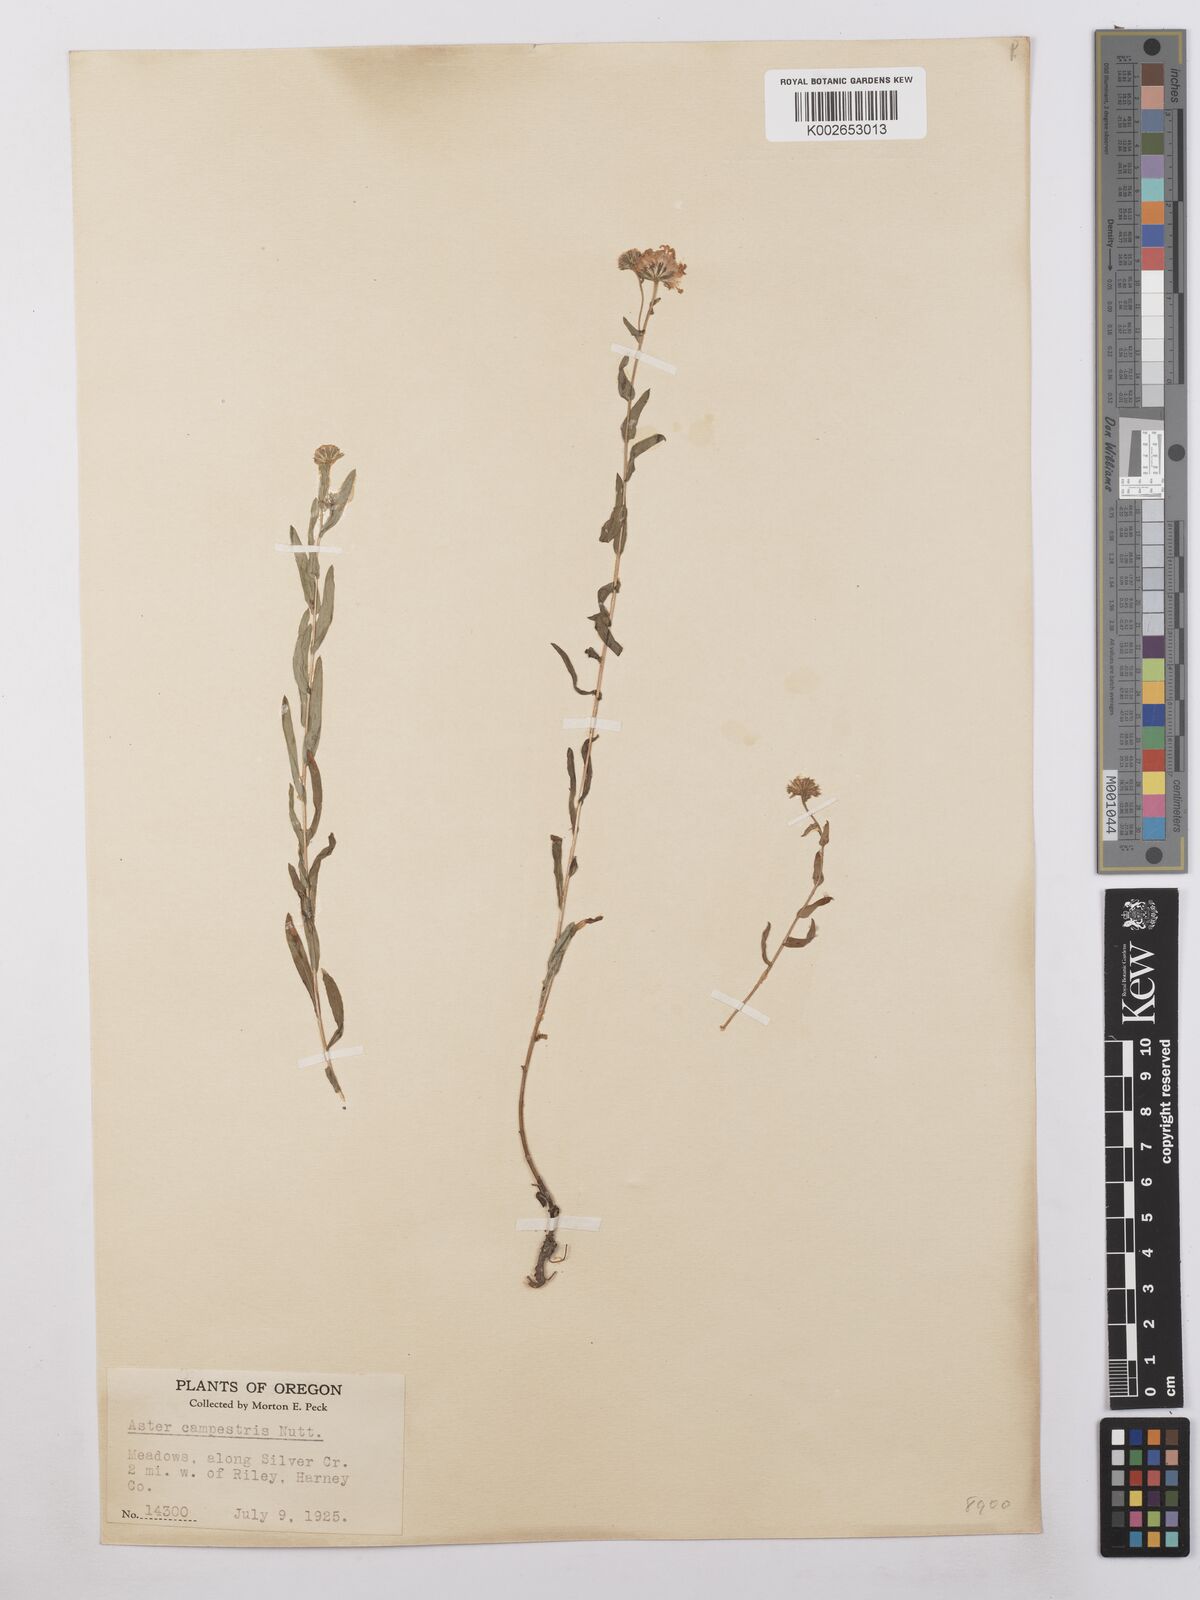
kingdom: Plantae
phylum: Tracheophyta
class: Magnoliopsida
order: Asterales
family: Asteraceae
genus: Symphyotrichum
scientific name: Symphyotrichum campestre
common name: Meadow aster
